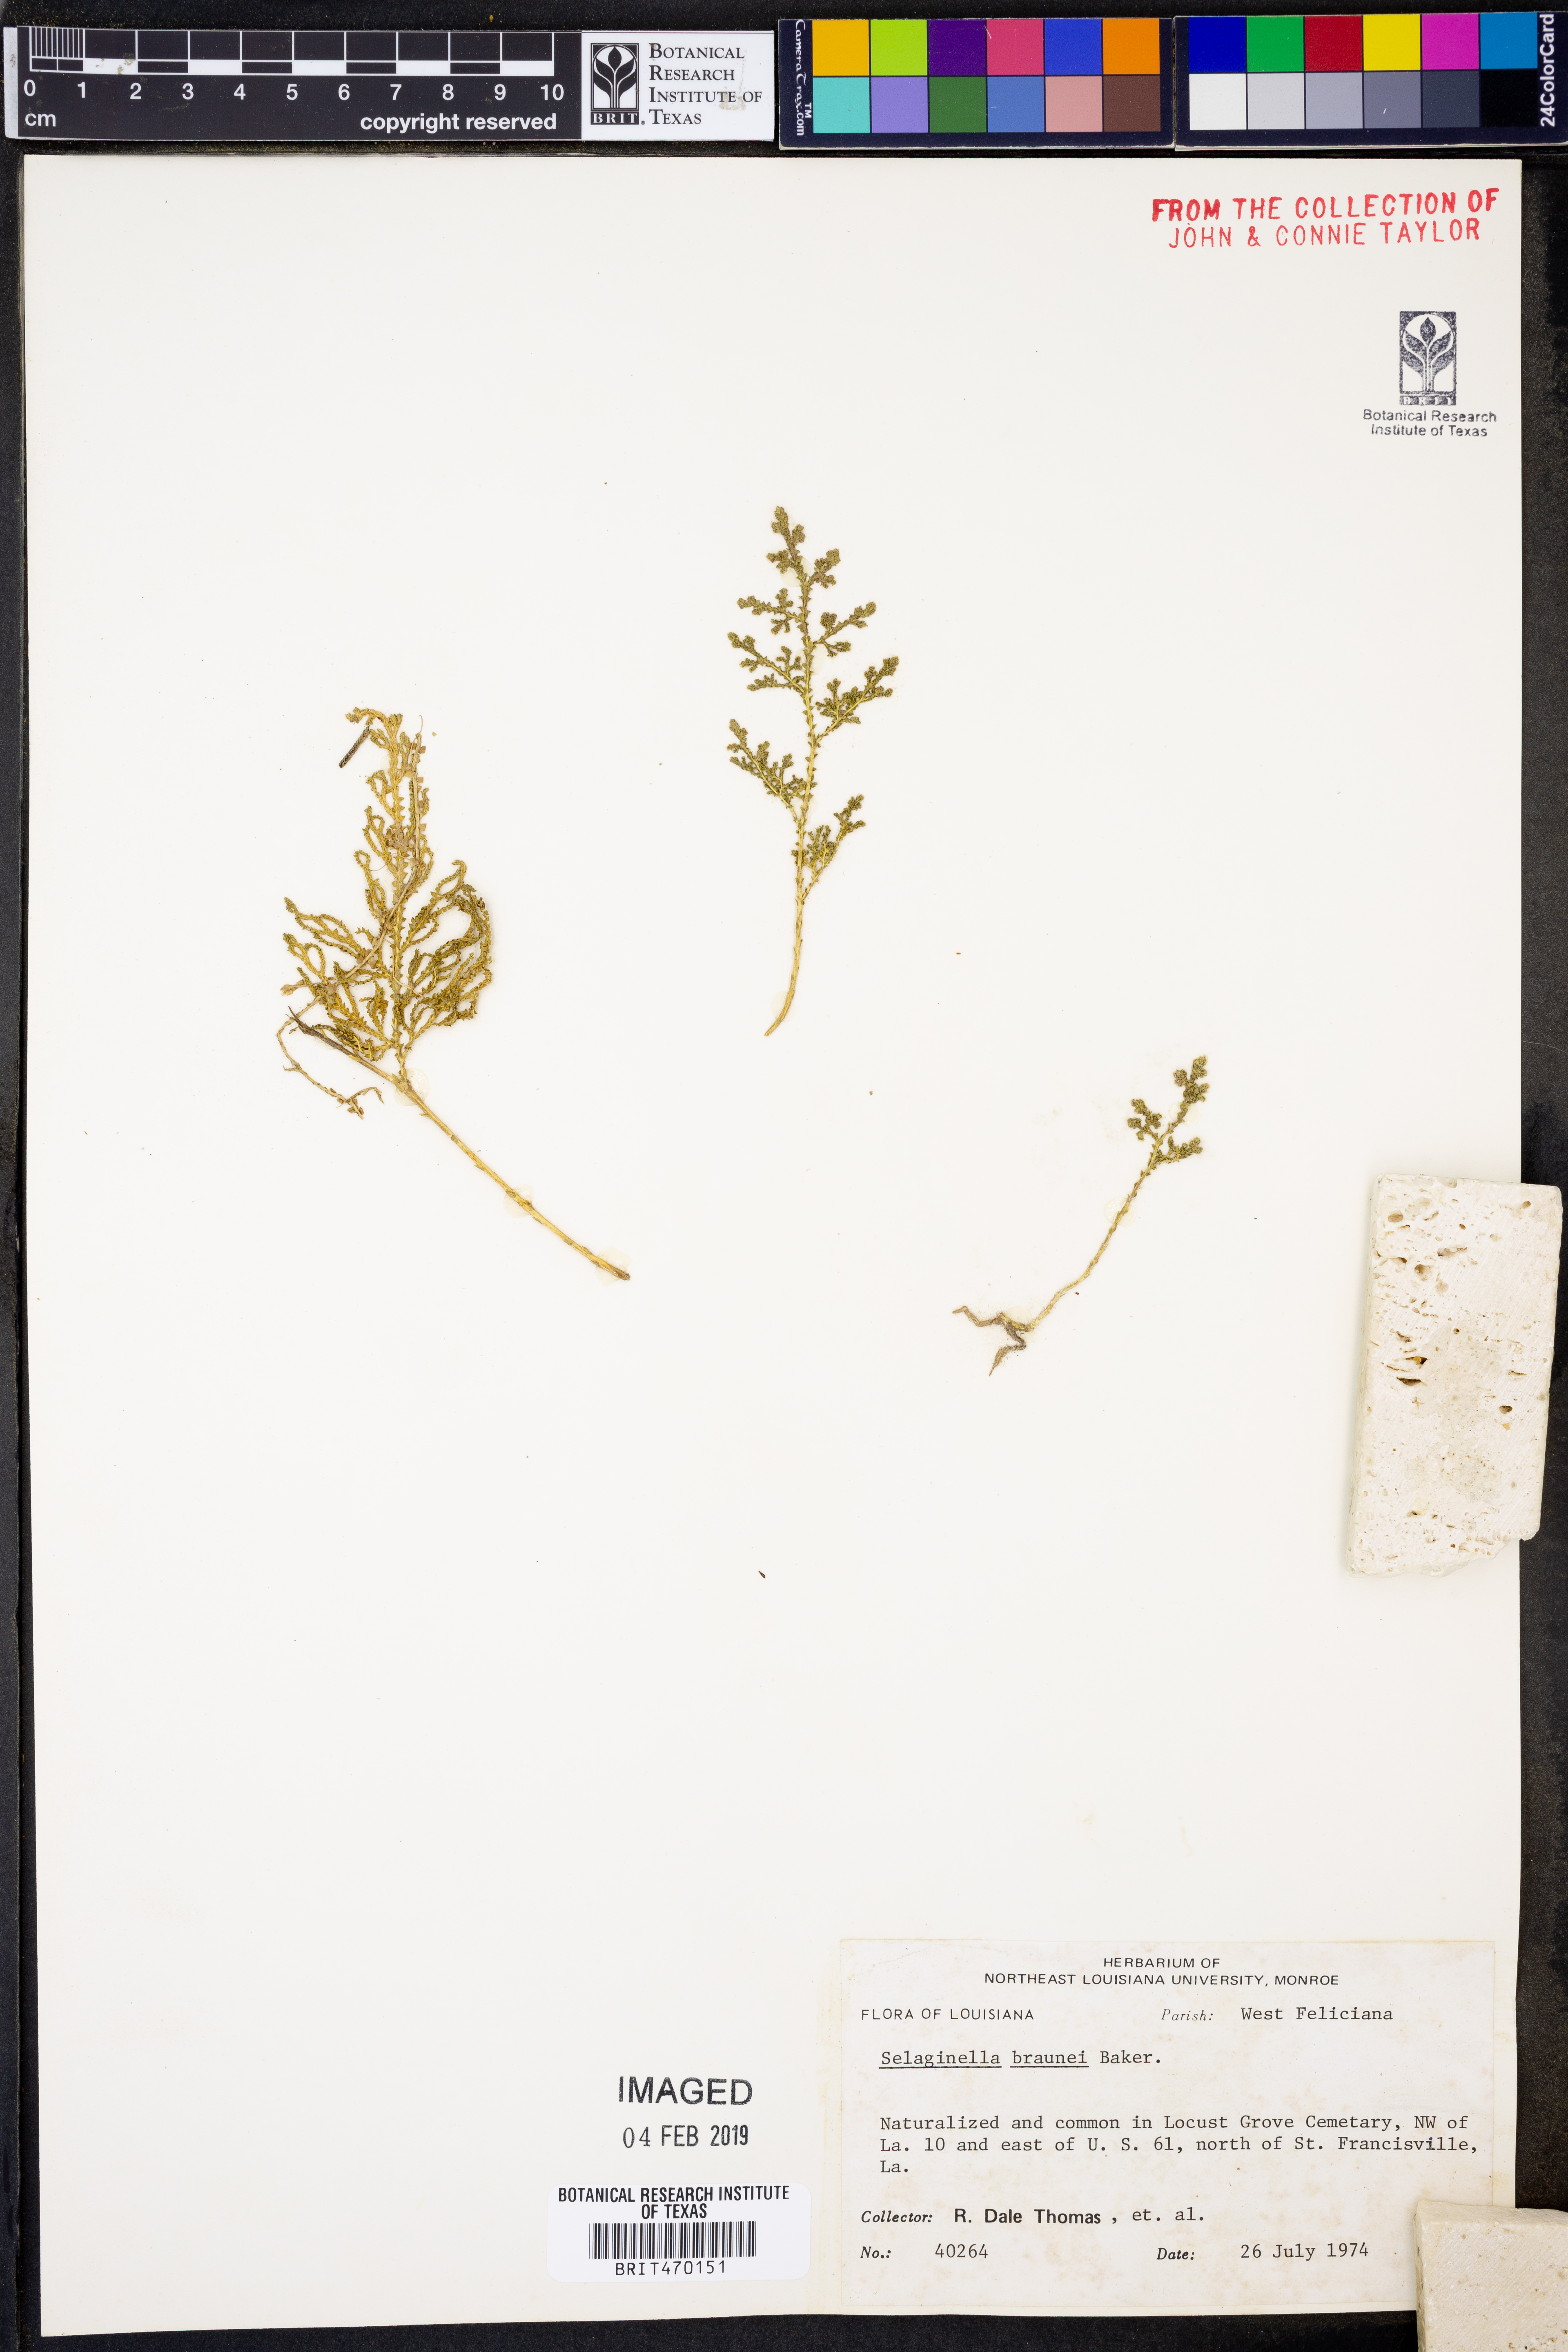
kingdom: Plantae
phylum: Tracheophyta
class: Lycopodiopsida
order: Selaginellales
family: Selaginellaceae
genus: Selaginella
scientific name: Selaginella braunii
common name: Braun's spikemoss
